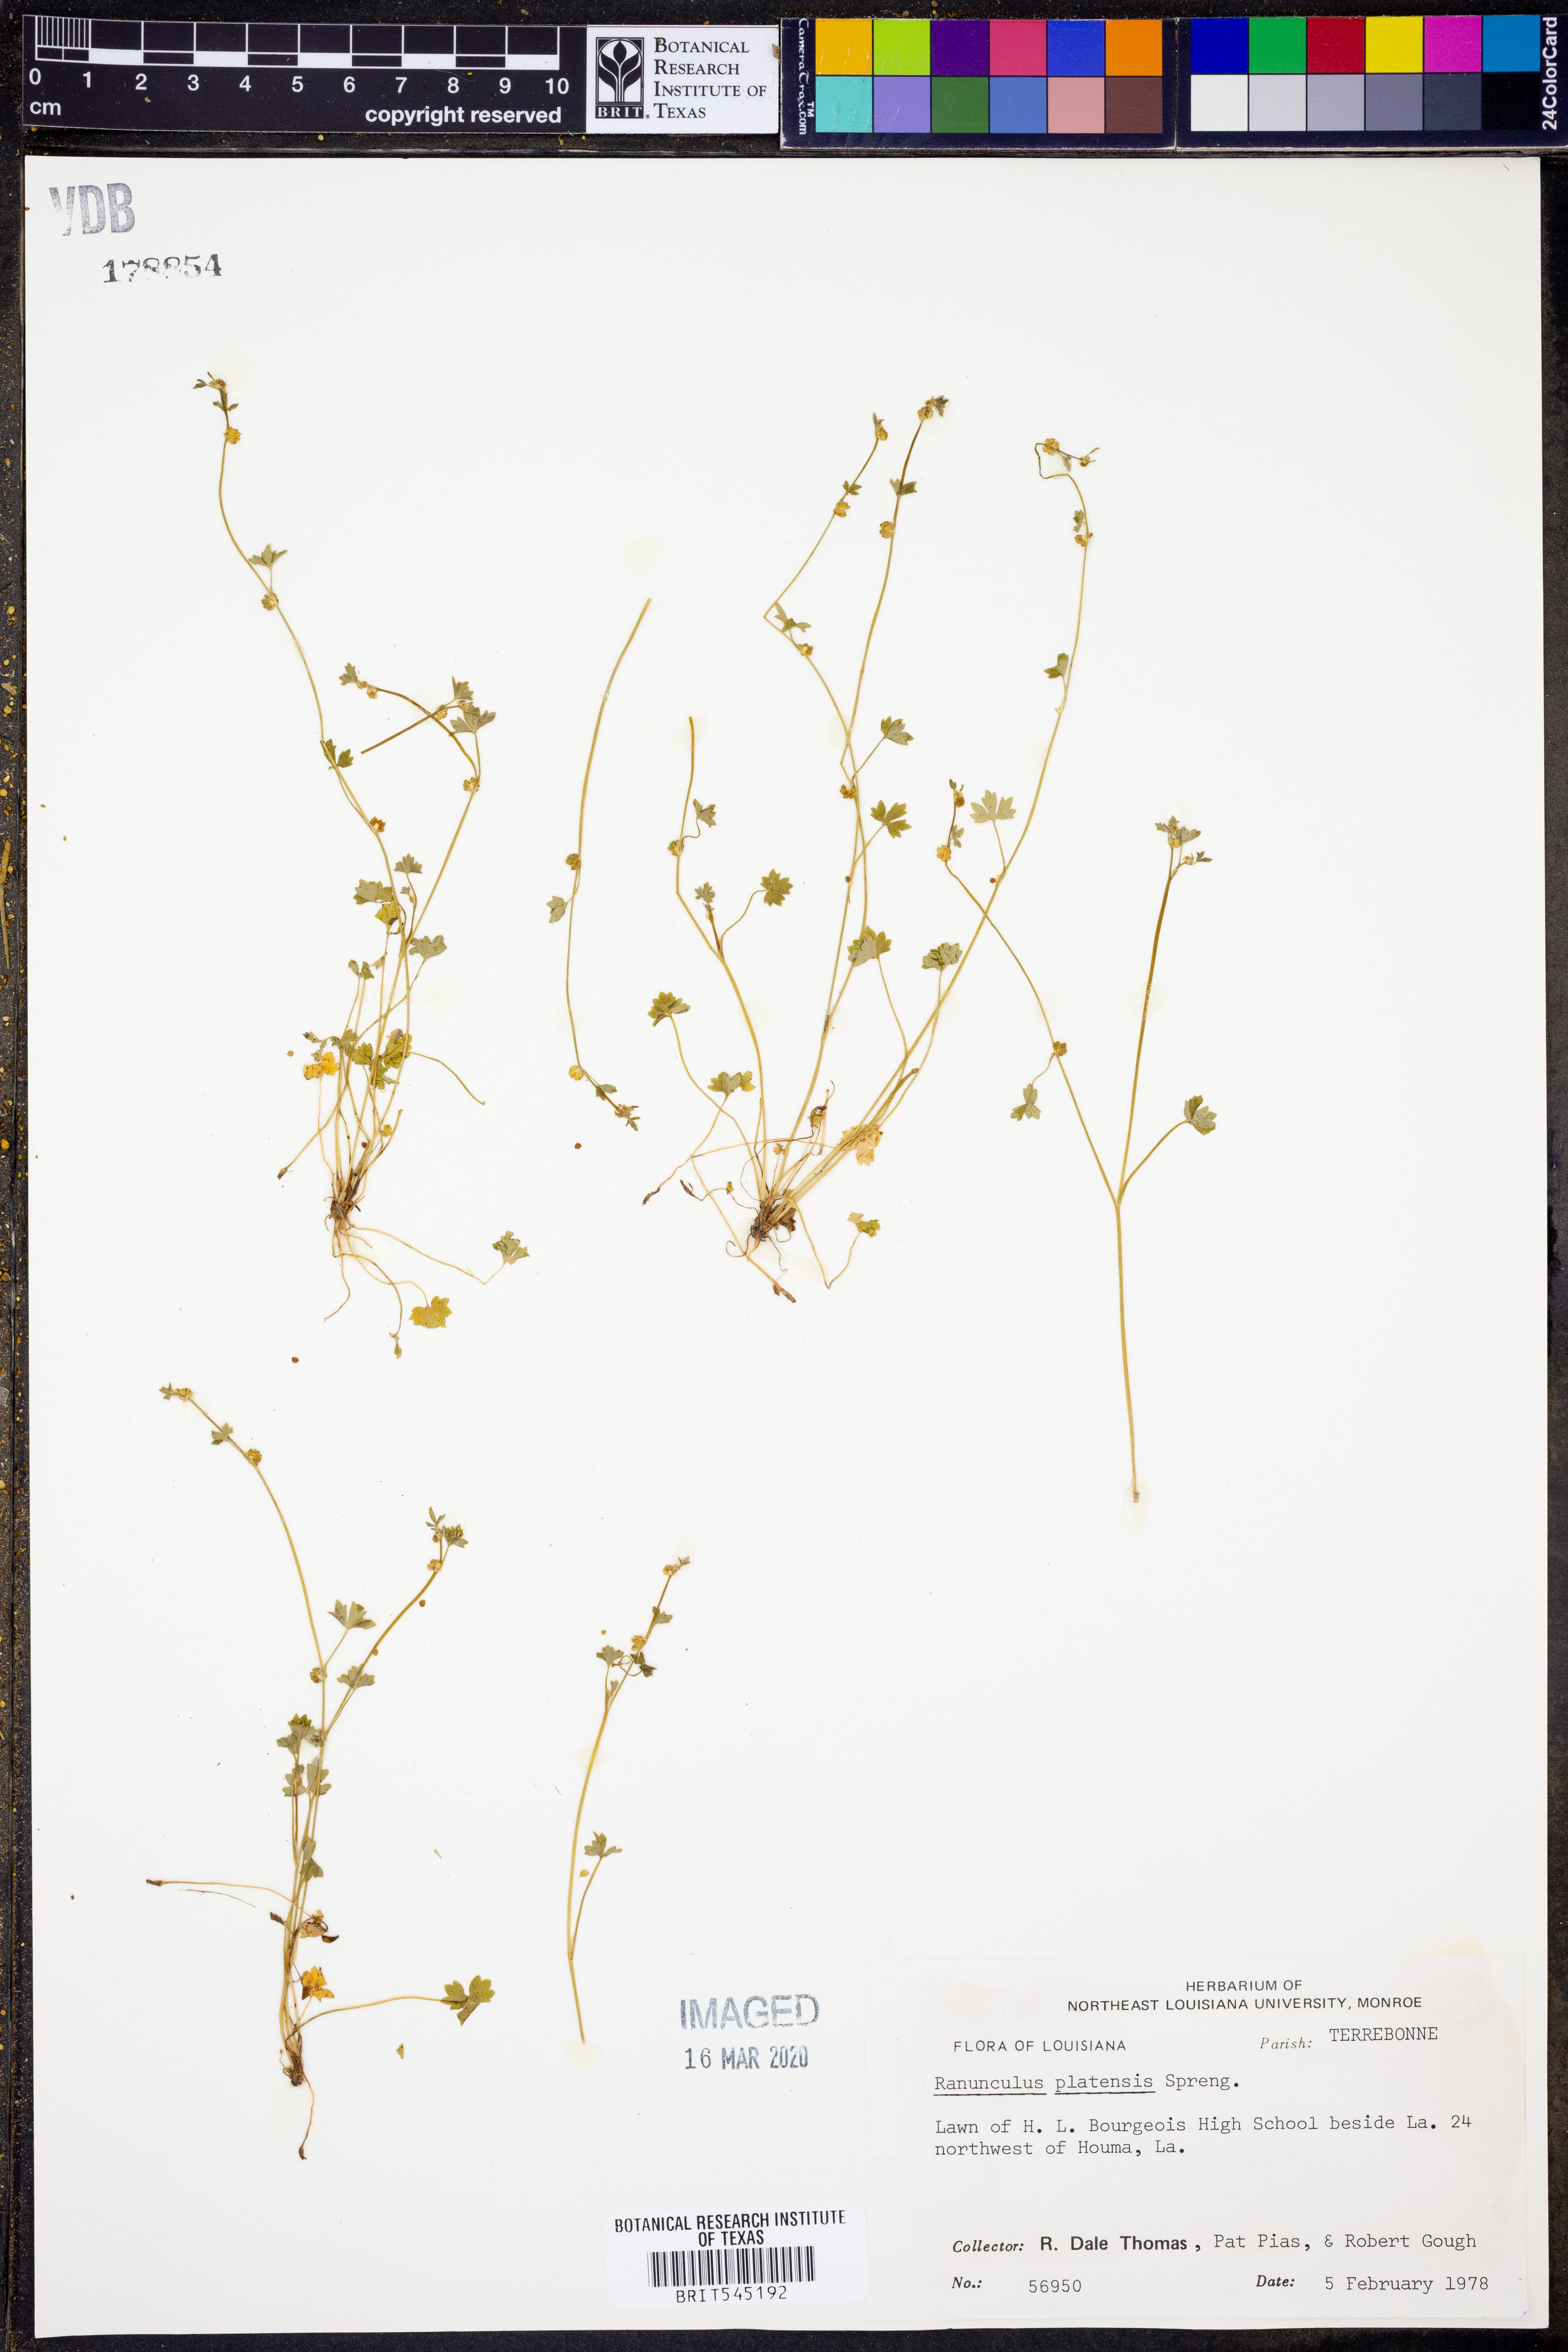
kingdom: Plantae
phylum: Tracheophyta
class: Magnoliopsida
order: Ranunculales
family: Ranunculaceae
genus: Ranunculus
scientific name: Ranunculus platensis
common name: Prairie buttercup
